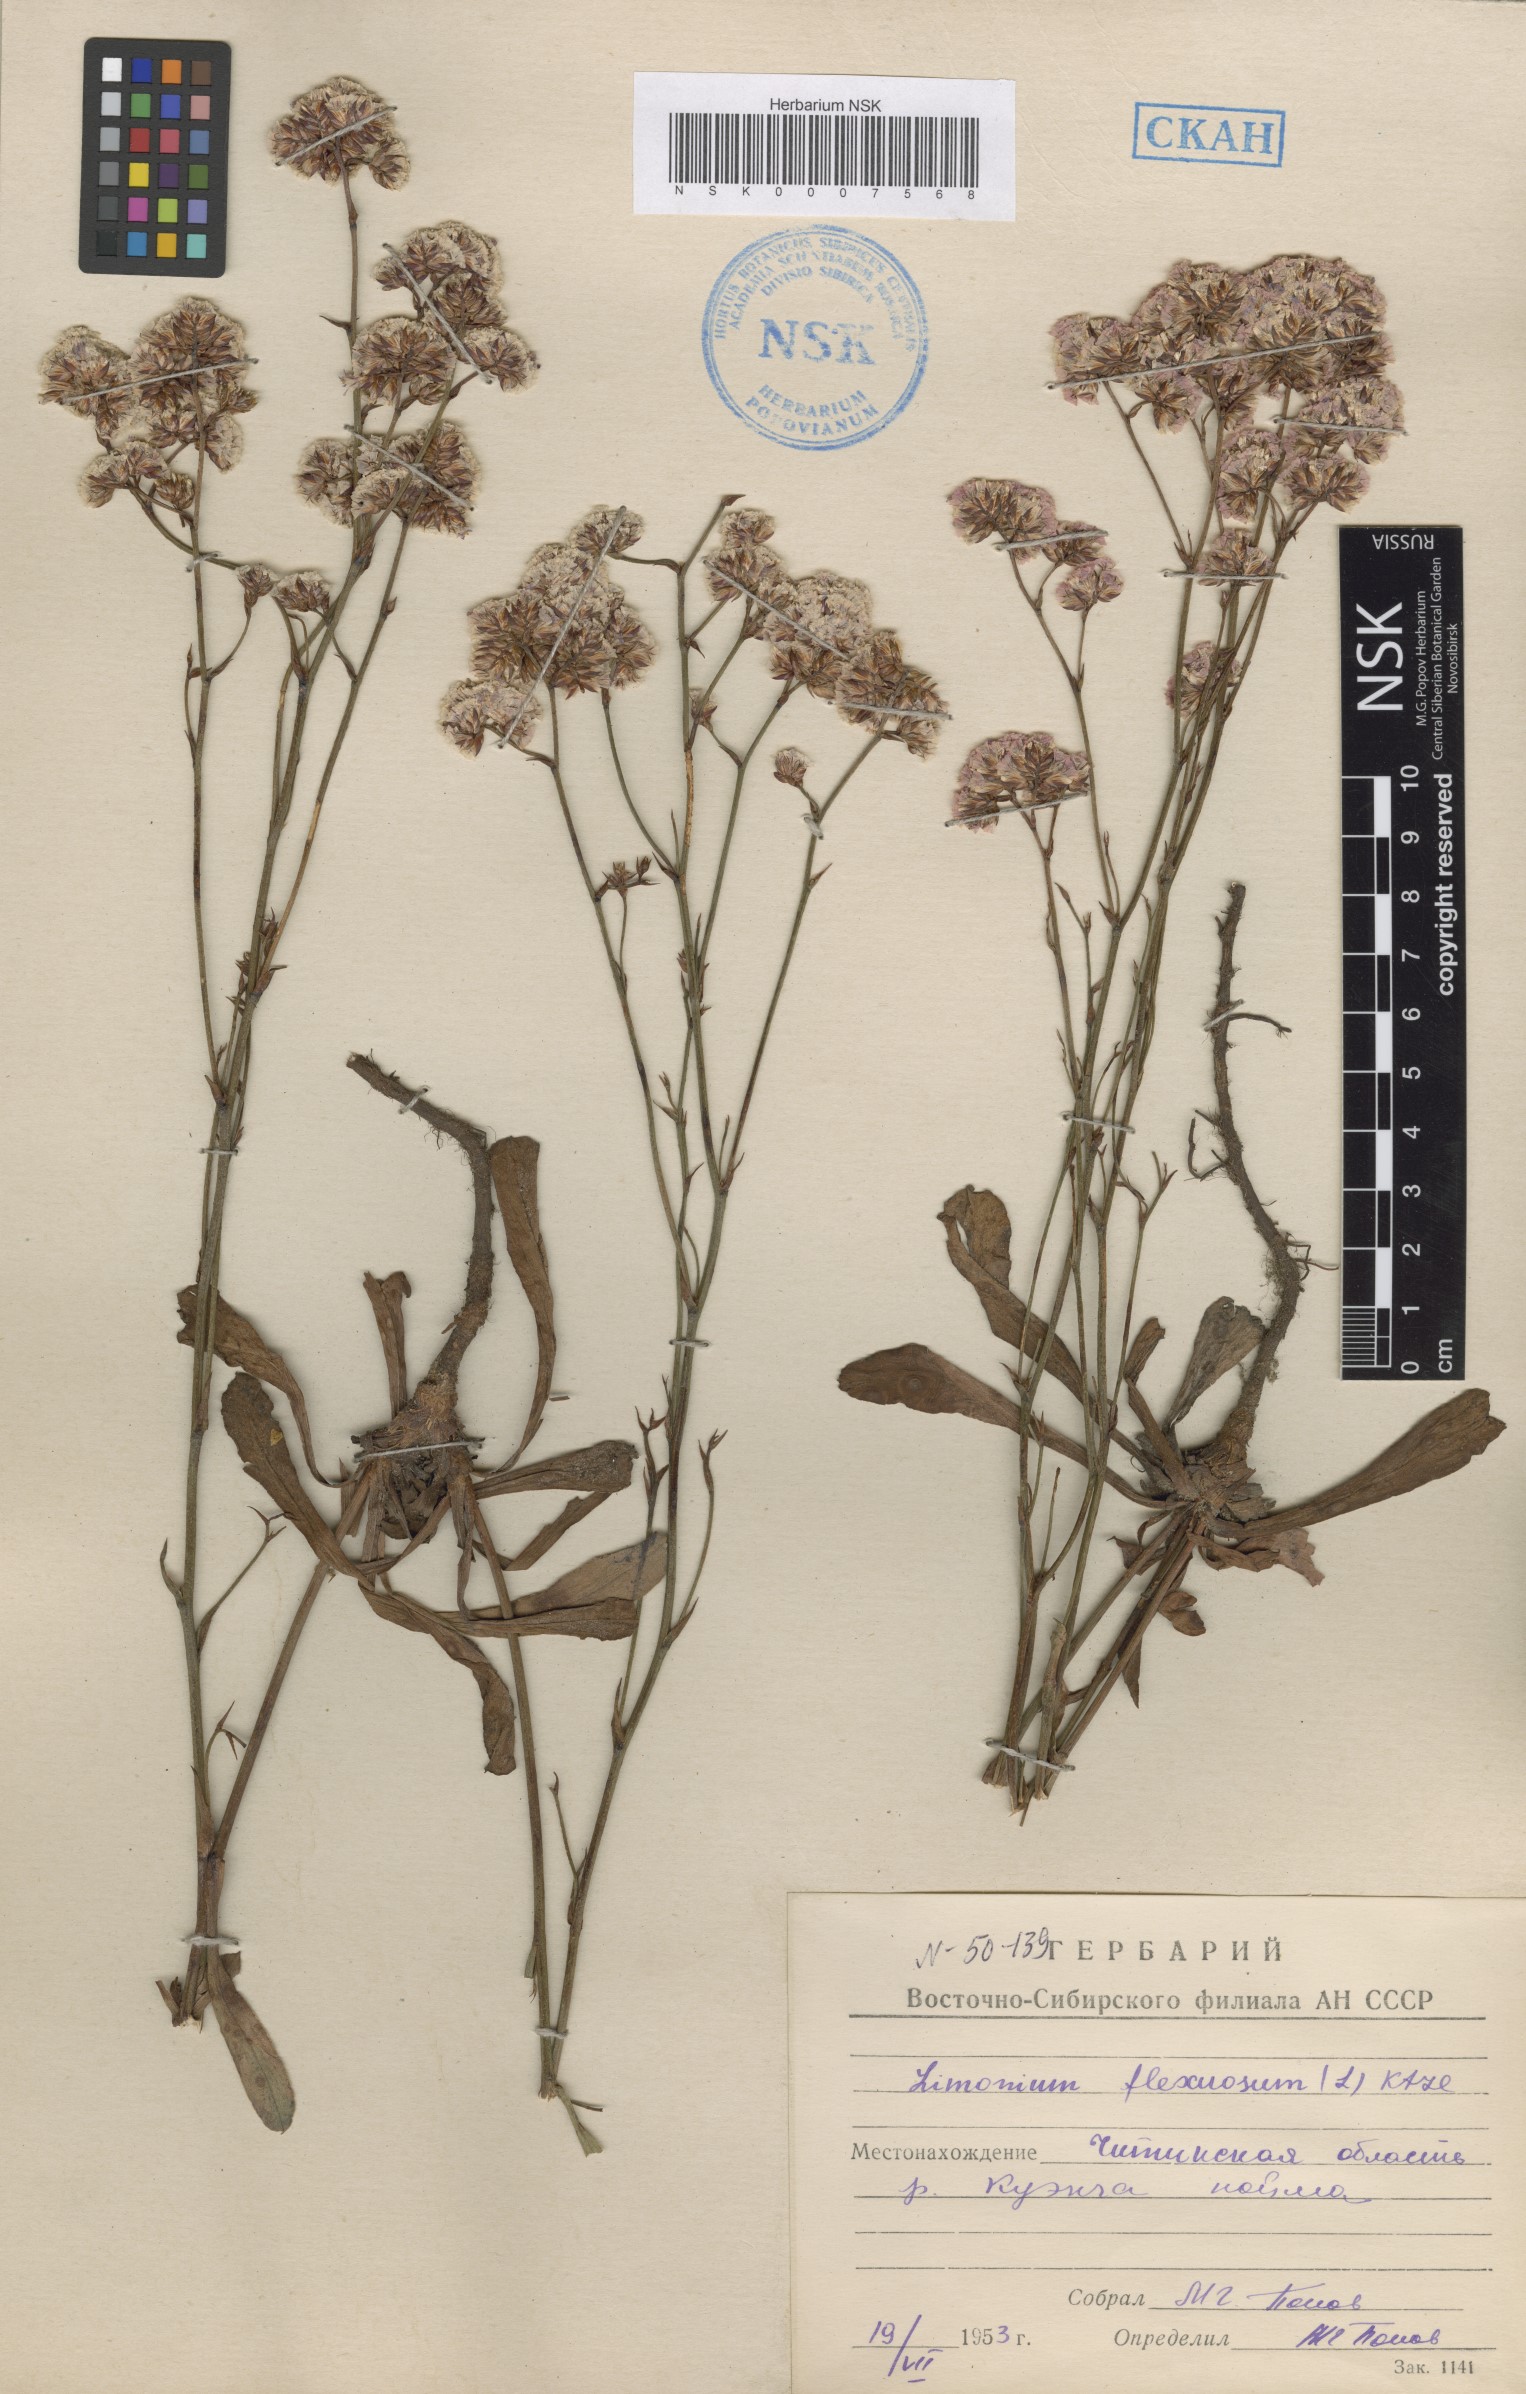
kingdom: Plantae
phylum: Tracheophyta
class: Magnoliopsida
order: Caryophyllales
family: Plumbaginaceae
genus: Limonium
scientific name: Limonium flexuosum
